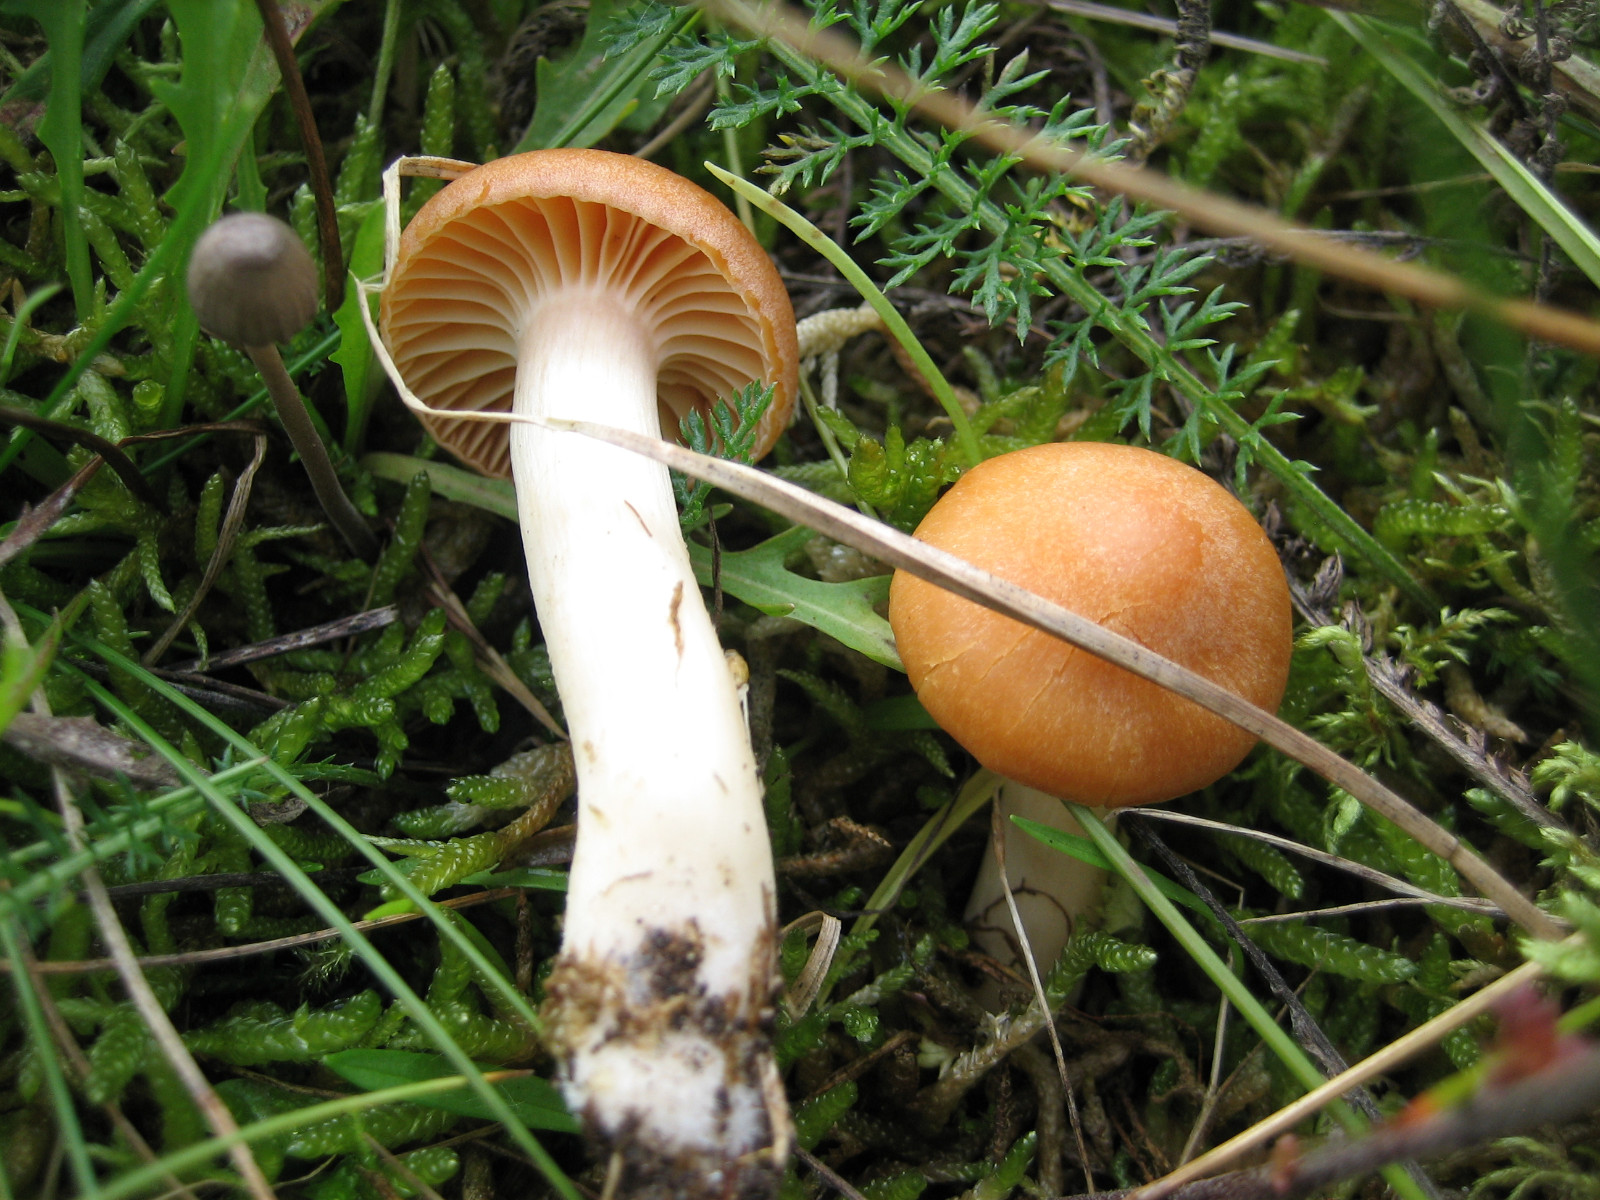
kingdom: Fungi
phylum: Basidiomycota
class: Agaricomycetes
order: Agaricales
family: Hygrophoraceae
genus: Cuphophyllus
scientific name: Cuphophyllus pratensis
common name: eng-vokshat
